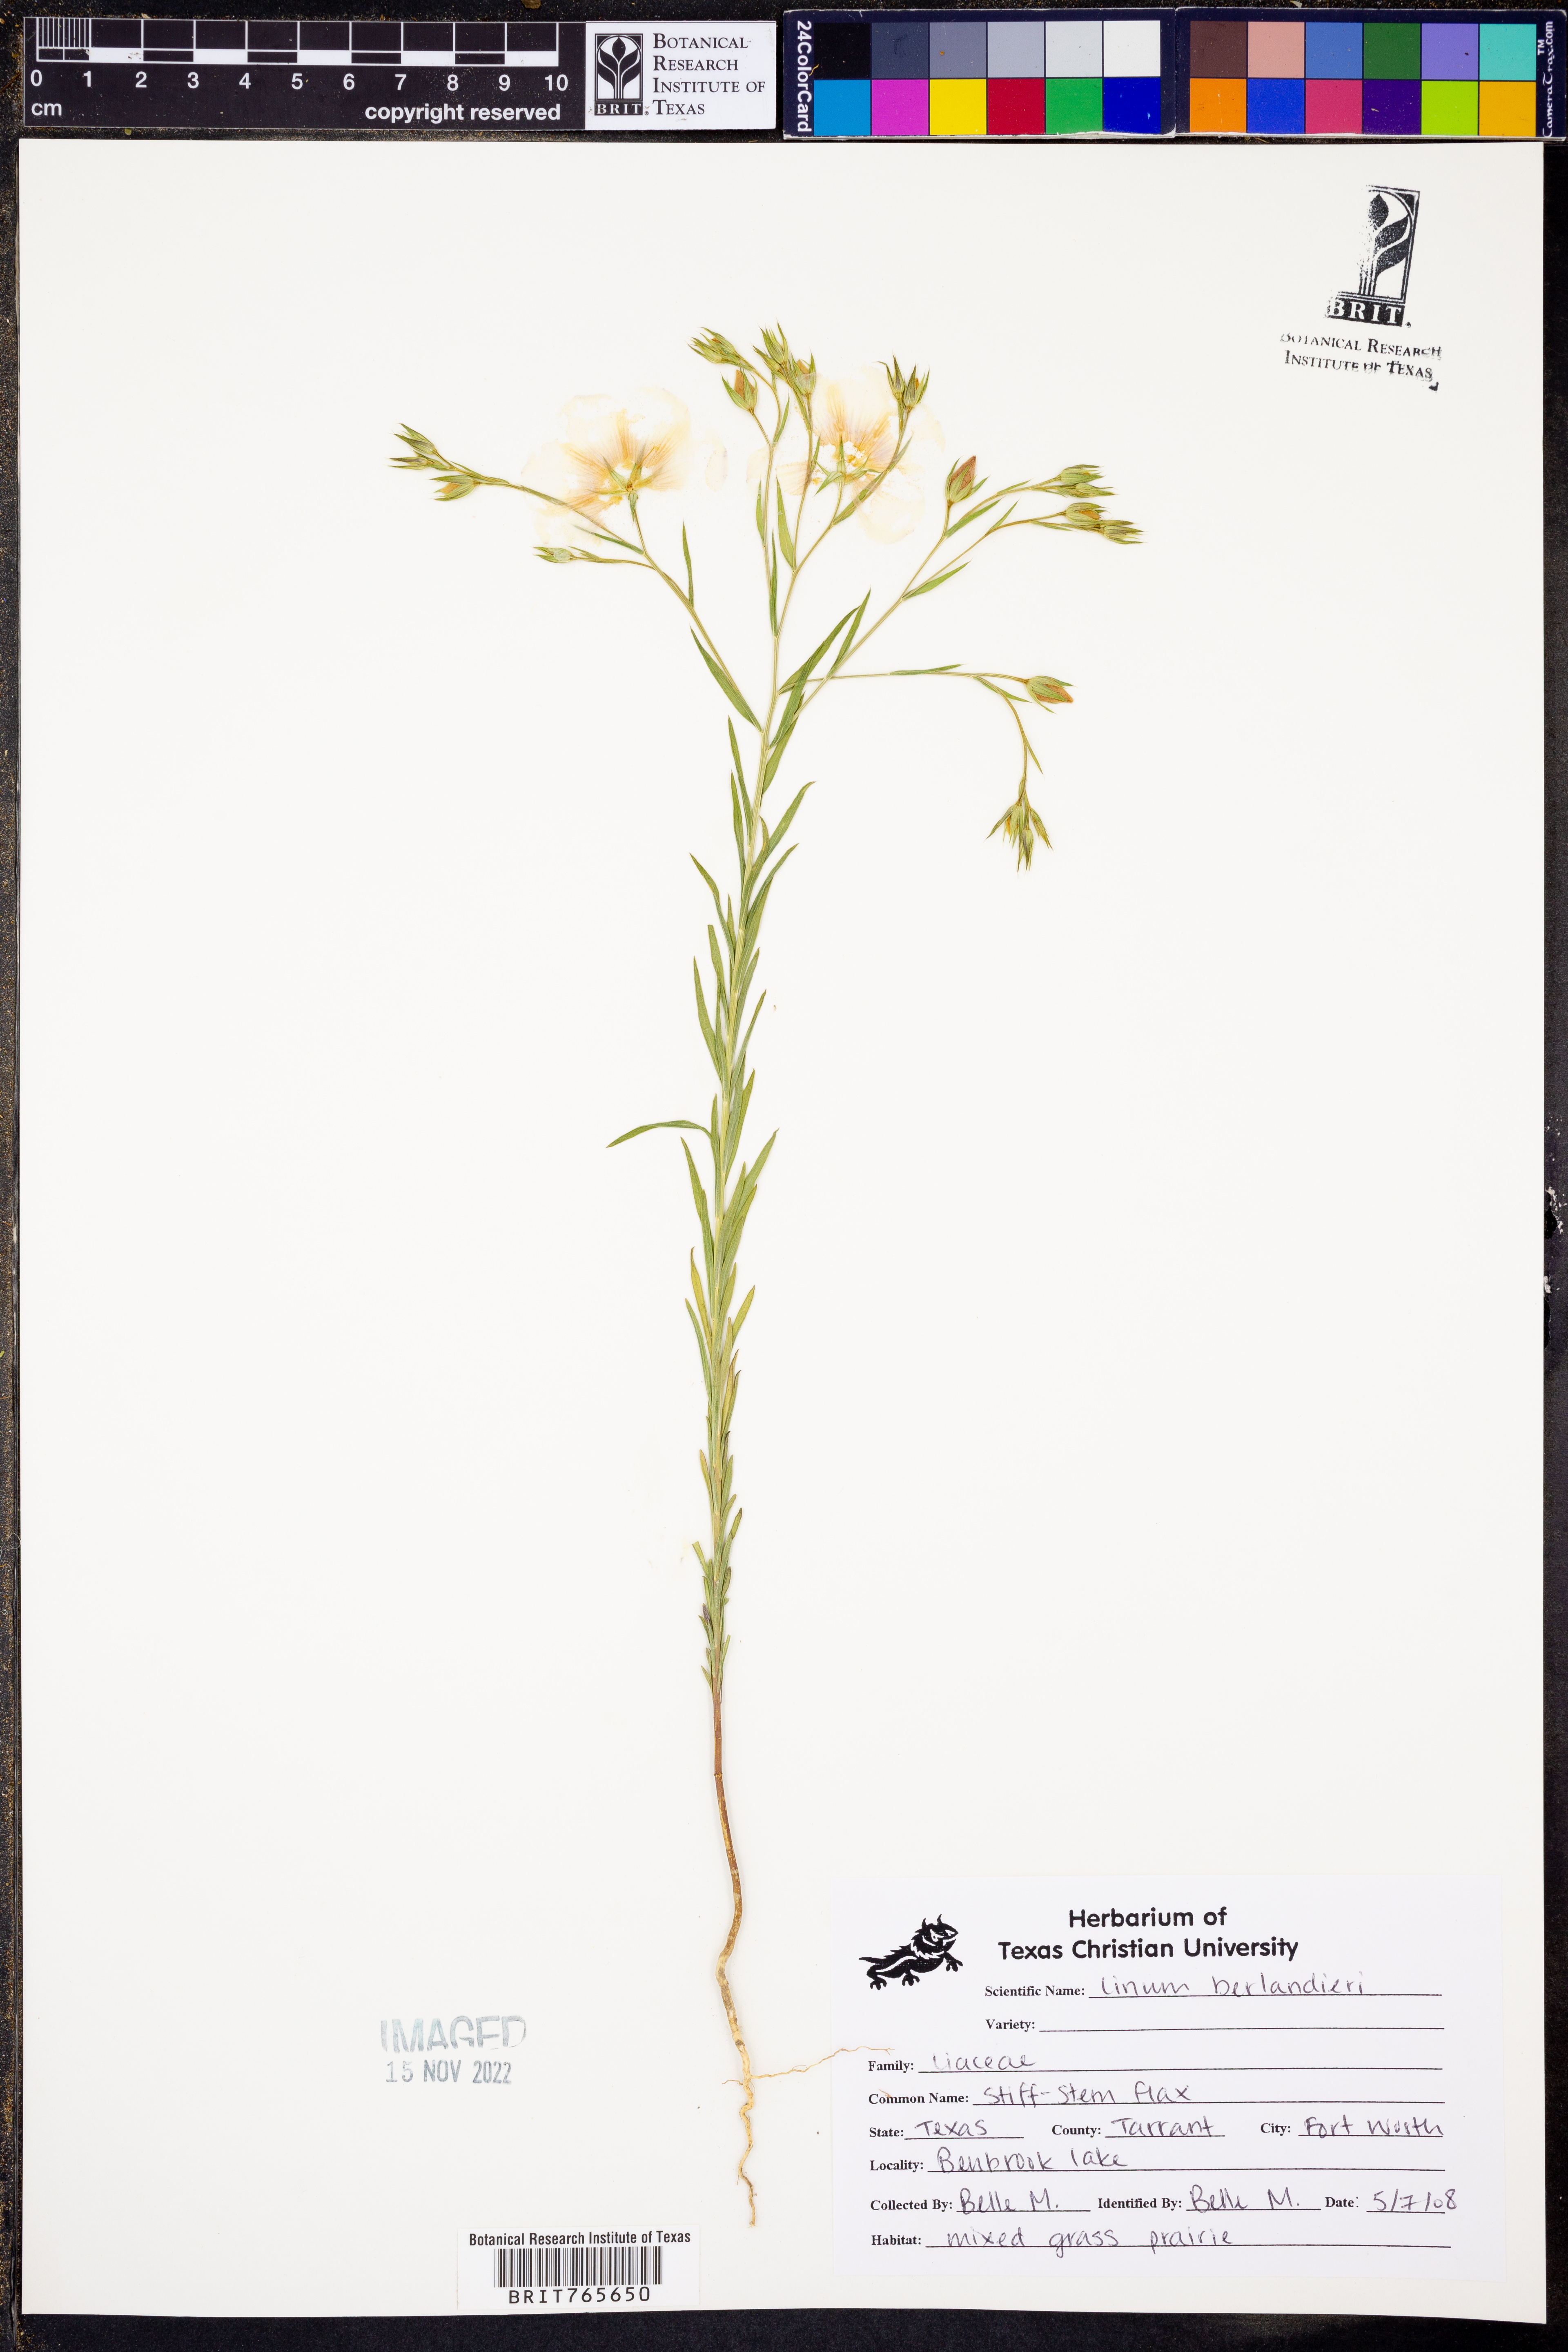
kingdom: Plantae
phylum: Tracheophyta
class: Magnoliopsida
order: Malpighiales
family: Linaceae
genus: Linum
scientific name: Linum berlandieri
